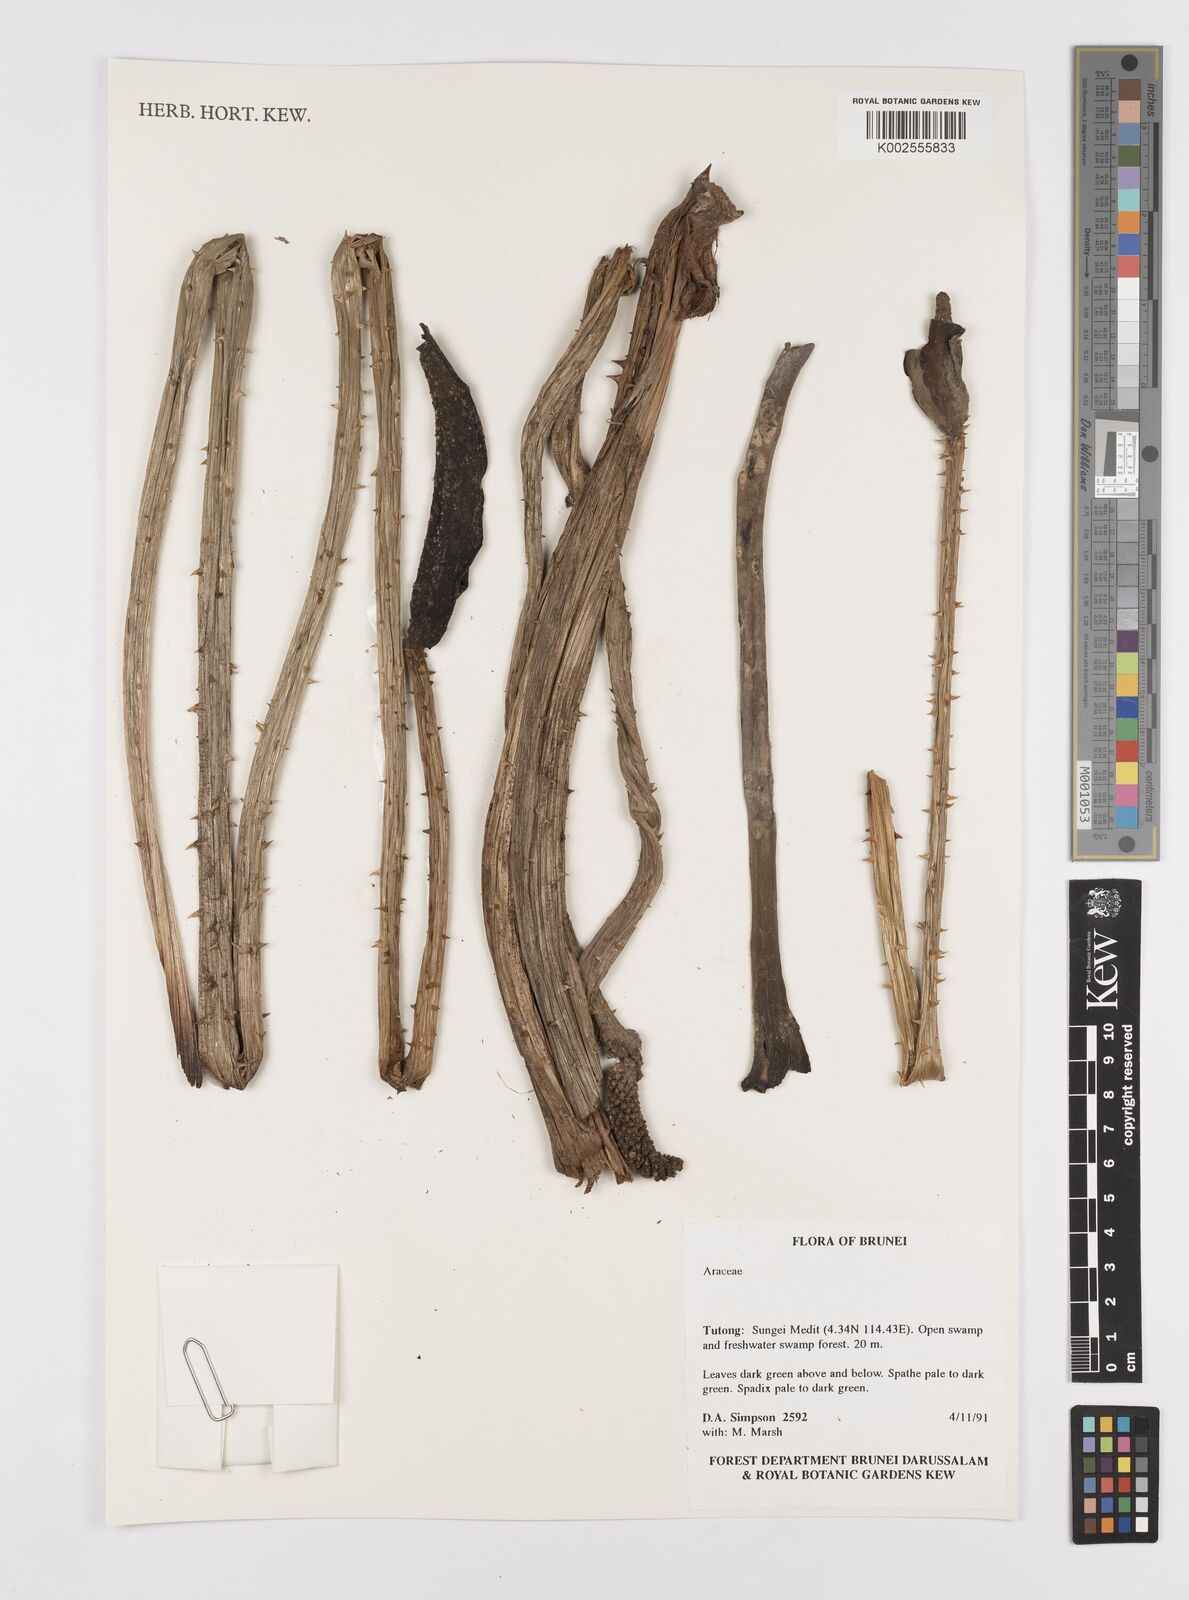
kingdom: Plantae
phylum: Tracheophyta
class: Liliopsida
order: Alismatales
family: Araceae
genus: Lasia
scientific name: Lasia spinosa
